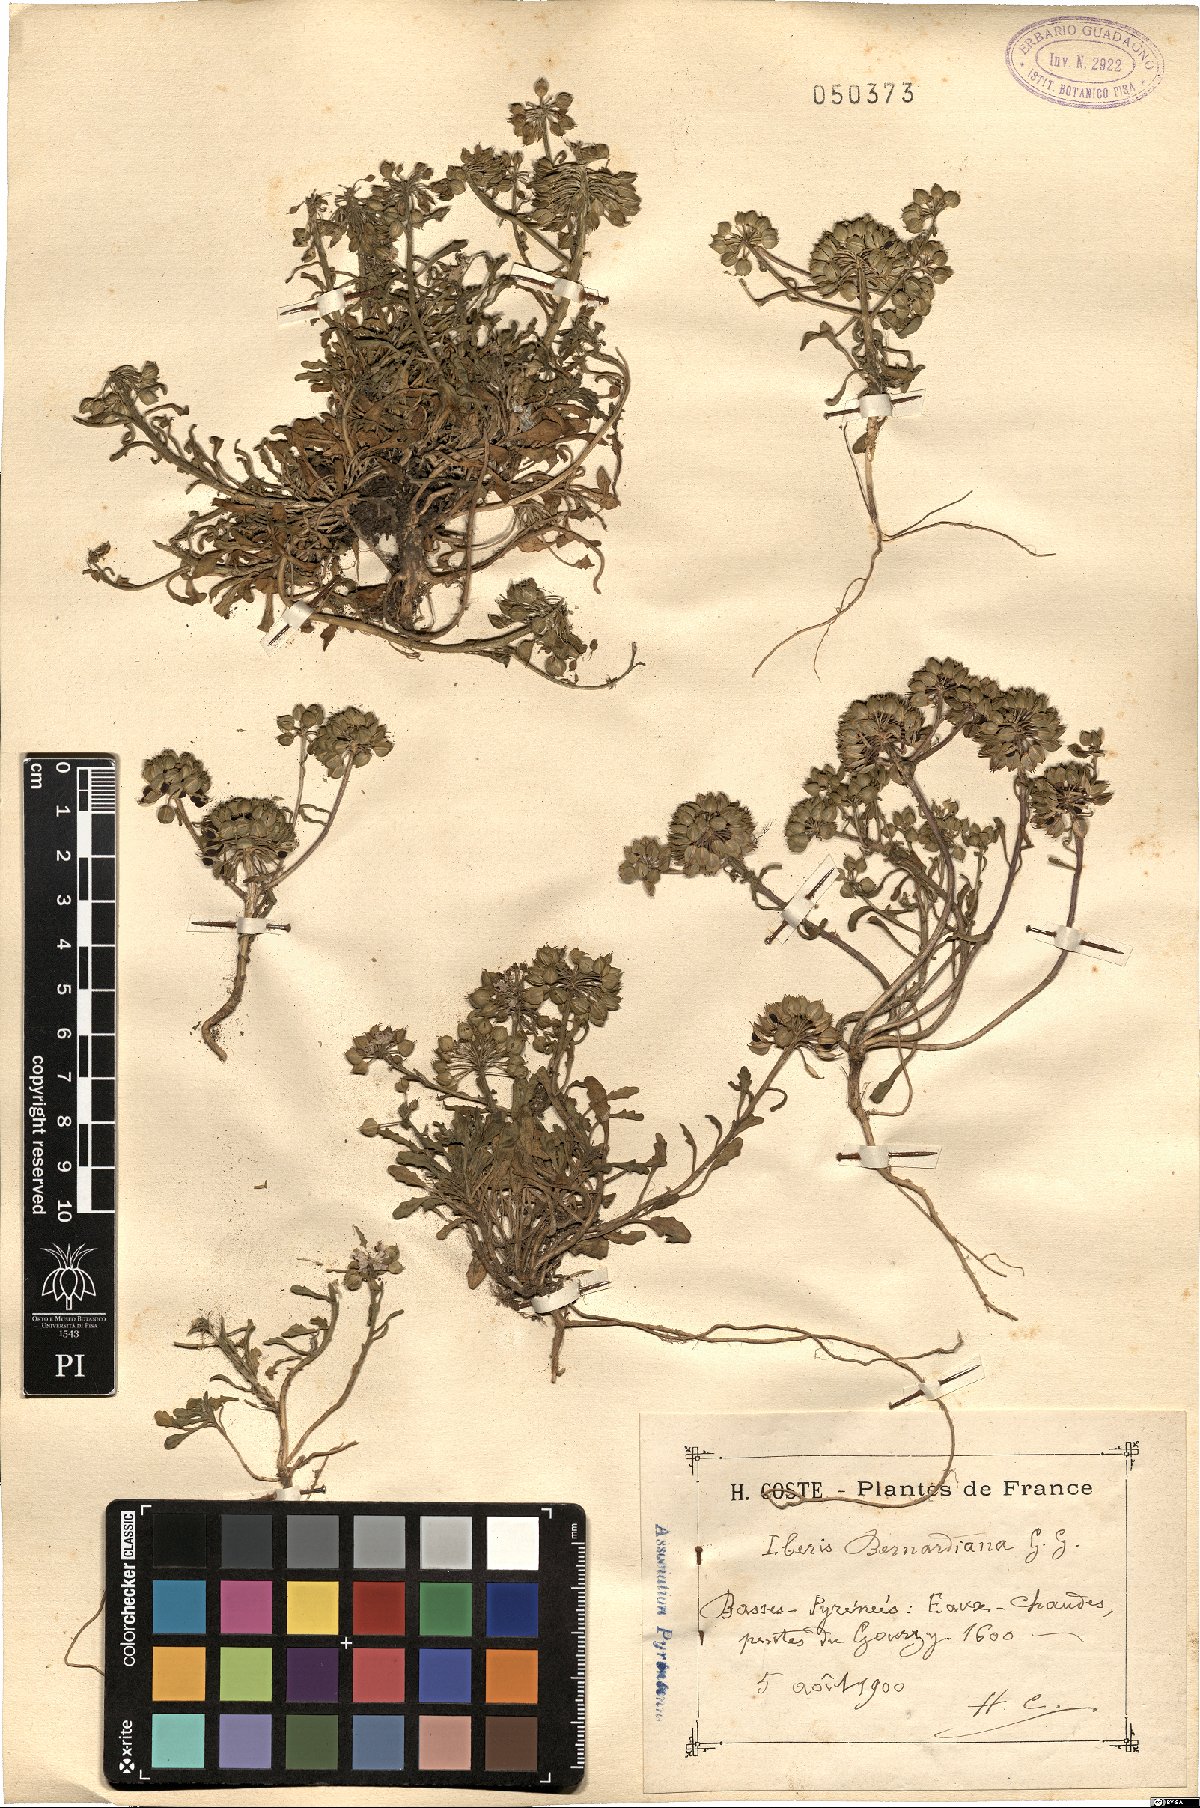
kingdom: Plantae
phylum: Tracheophyta
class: Magnoliopsida
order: Brassicales
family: Brassicaceae
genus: Iberis
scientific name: Iberis bernardiana
